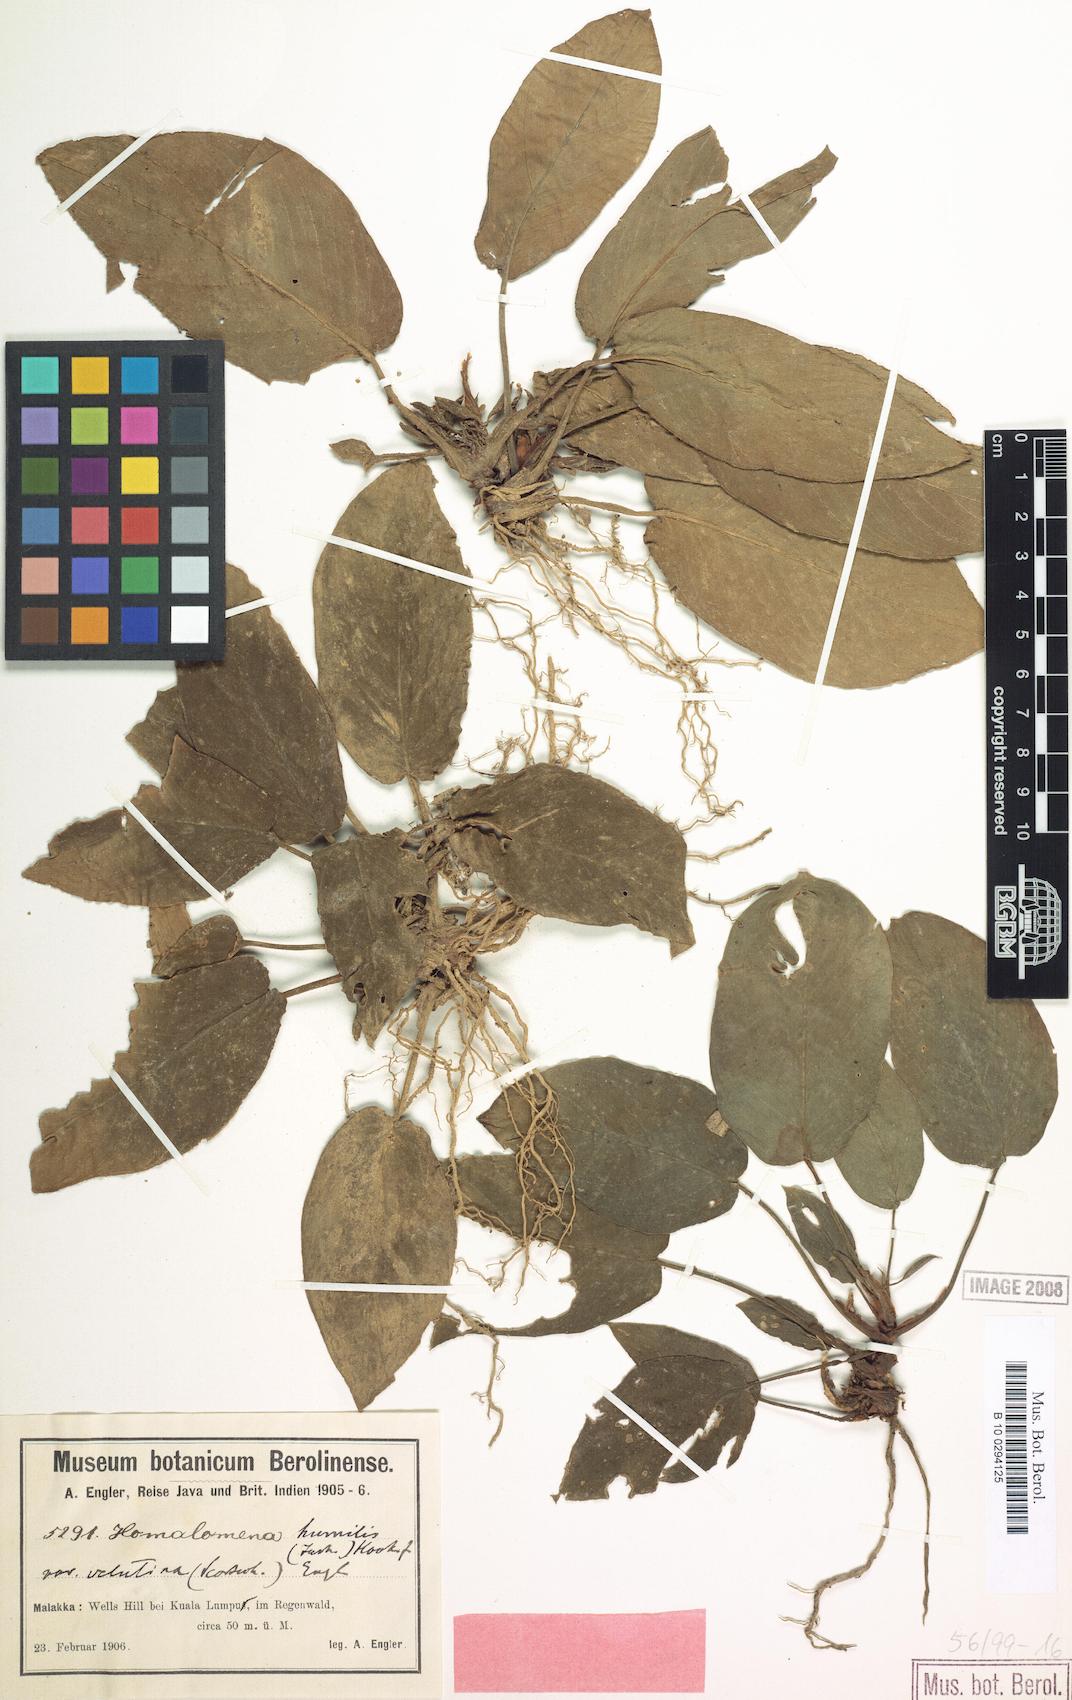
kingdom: Plantae
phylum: Tracheophyta
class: Liliopsida
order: Alismatales
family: Araceae
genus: Homalomena
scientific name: Homalomena humilis
